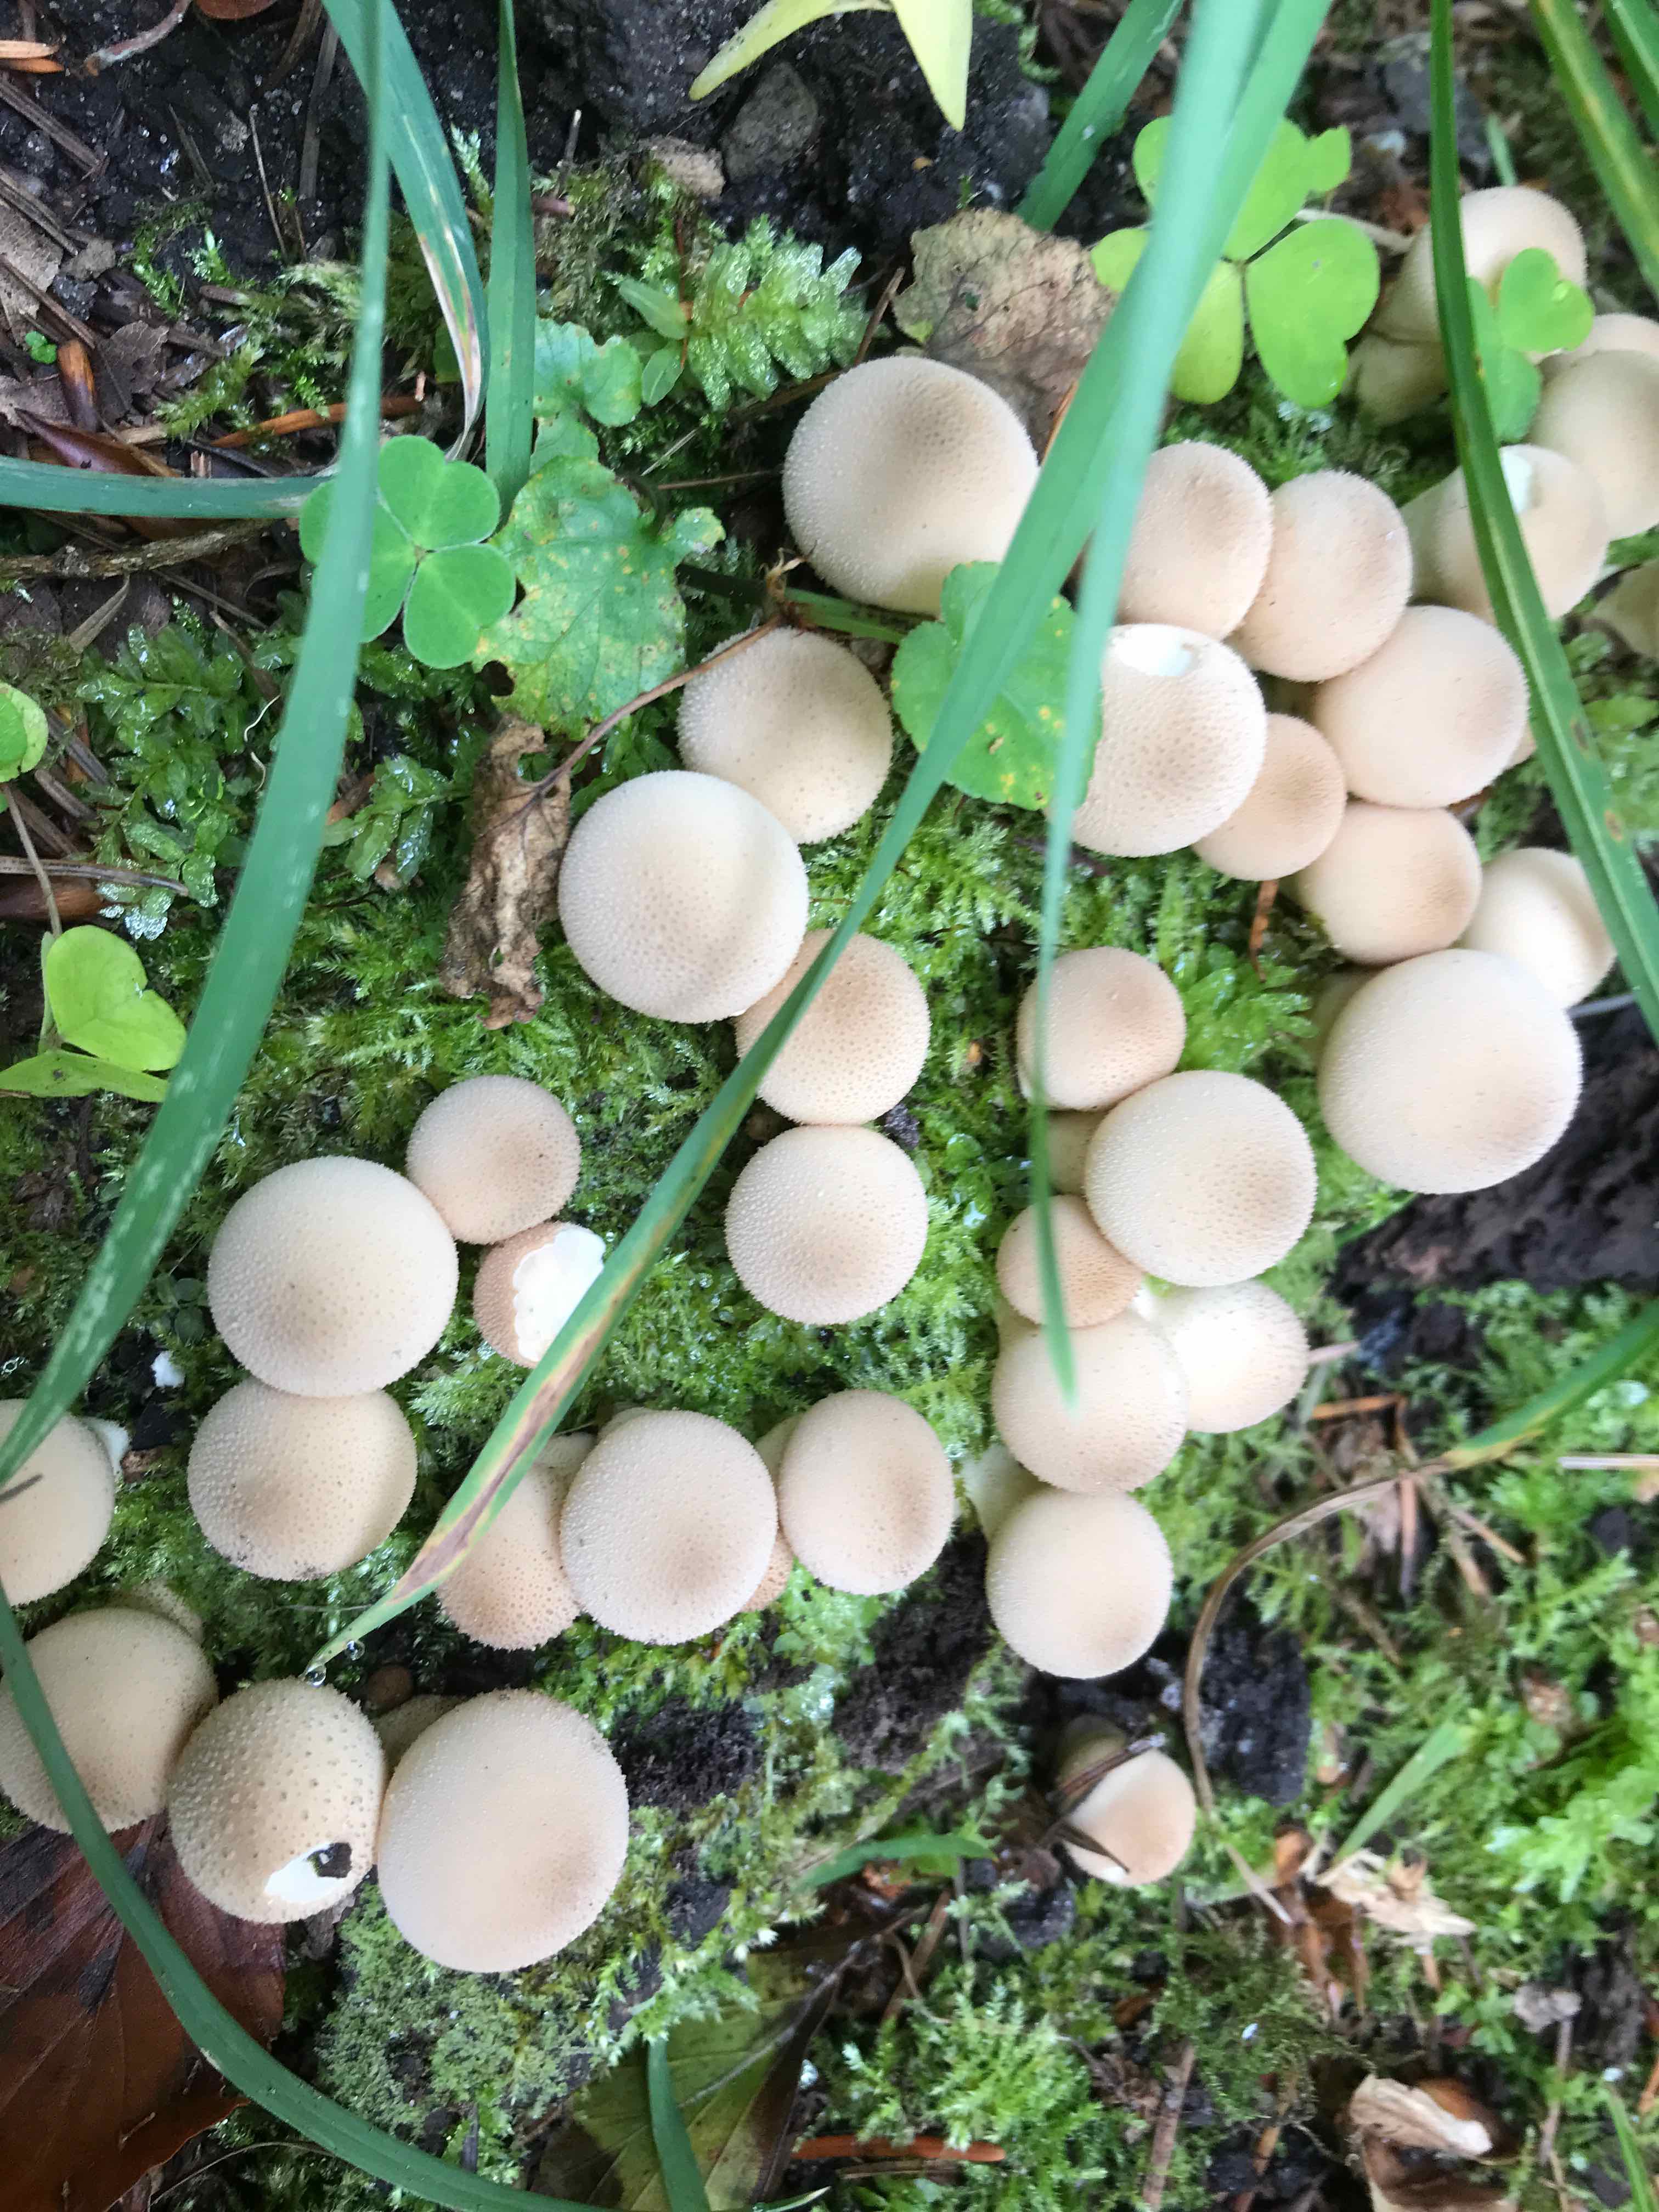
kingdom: Fungi
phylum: Basidiomycota
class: Agaricomycetes
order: Agaricales
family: Lycoperdaceae
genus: Apioperdon
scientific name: Apioperdon pyriforme
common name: pære-støvbold
